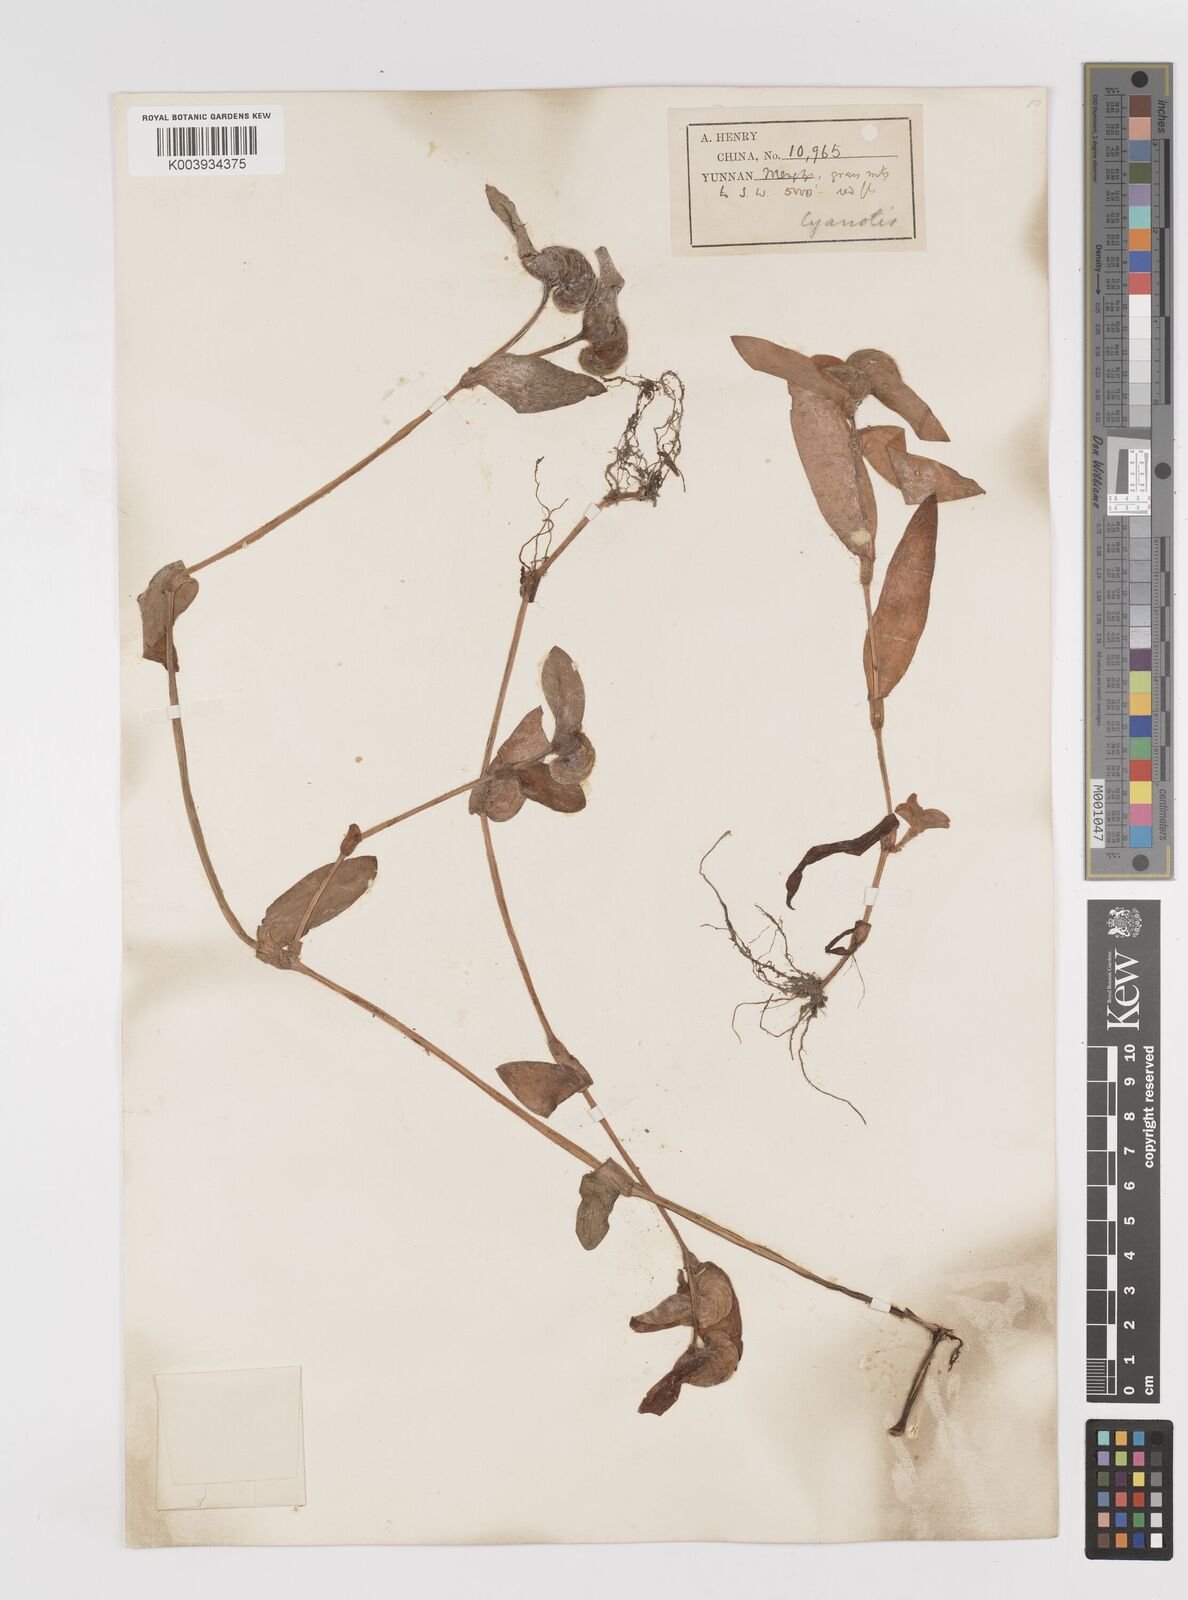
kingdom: Plantae
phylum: Tracheophyta
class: Liliopsida
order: Commelinales
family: Commelinaceae
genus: Cyanotis
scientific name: Cyanotis
